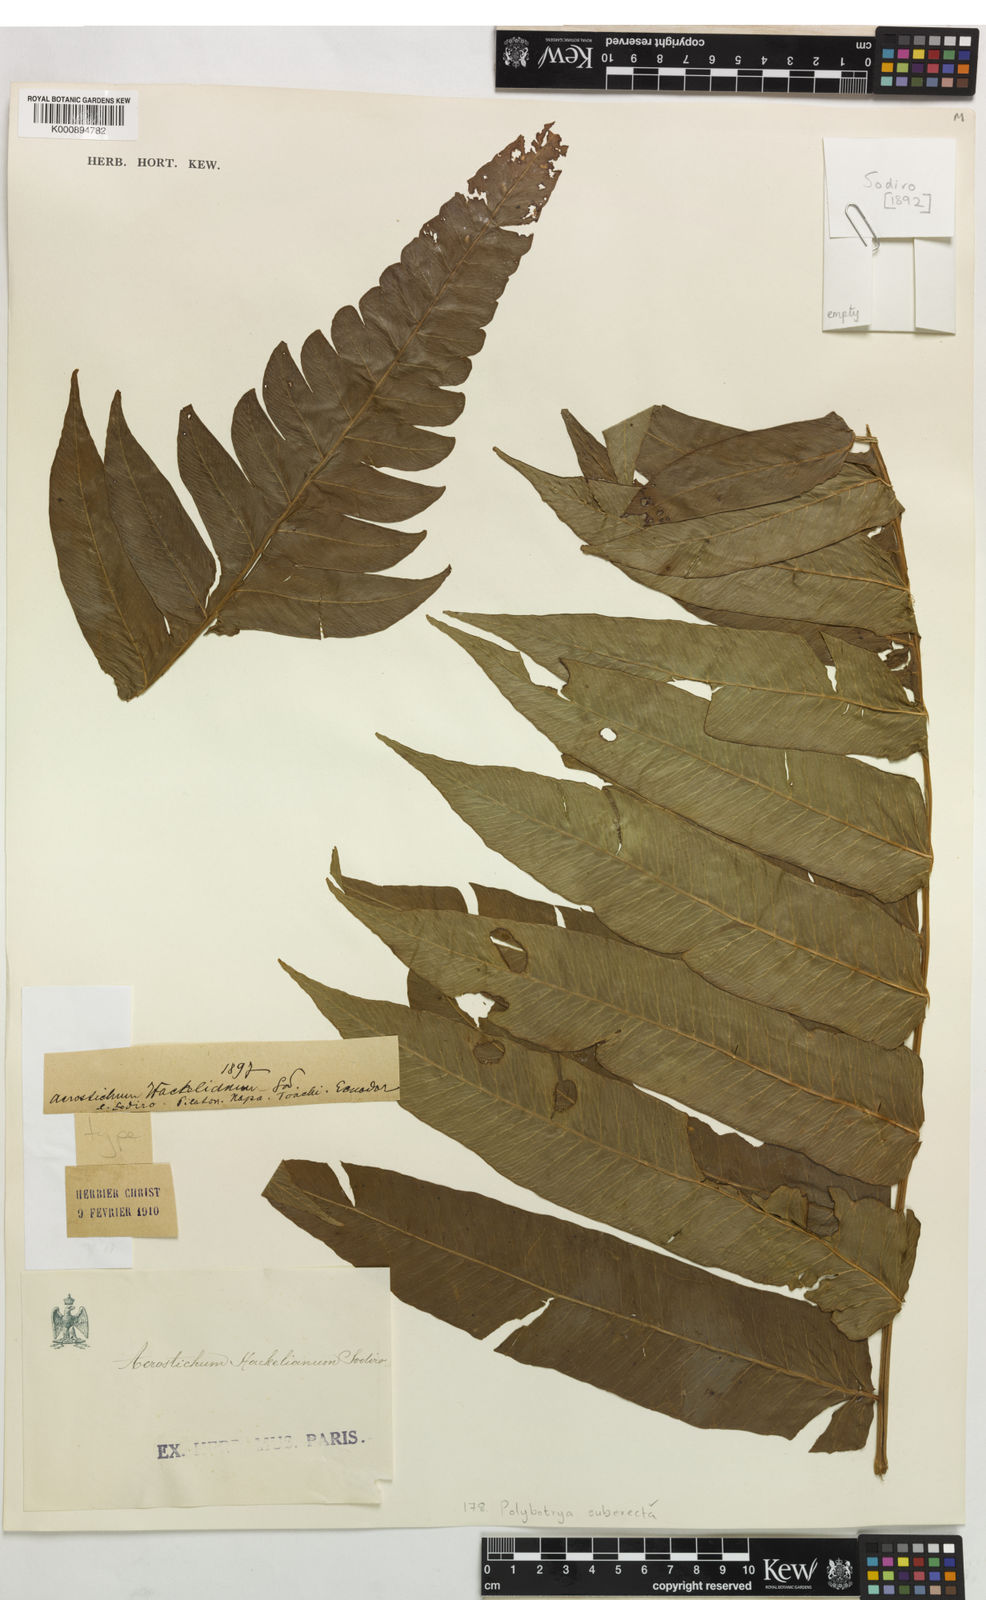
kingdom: Plantae
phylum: Tracheophyta
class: Polypodiopsida
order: Polypodiales
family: Dryopteridaceae
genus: Polybotrya
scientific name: Polybotrya suberecta
